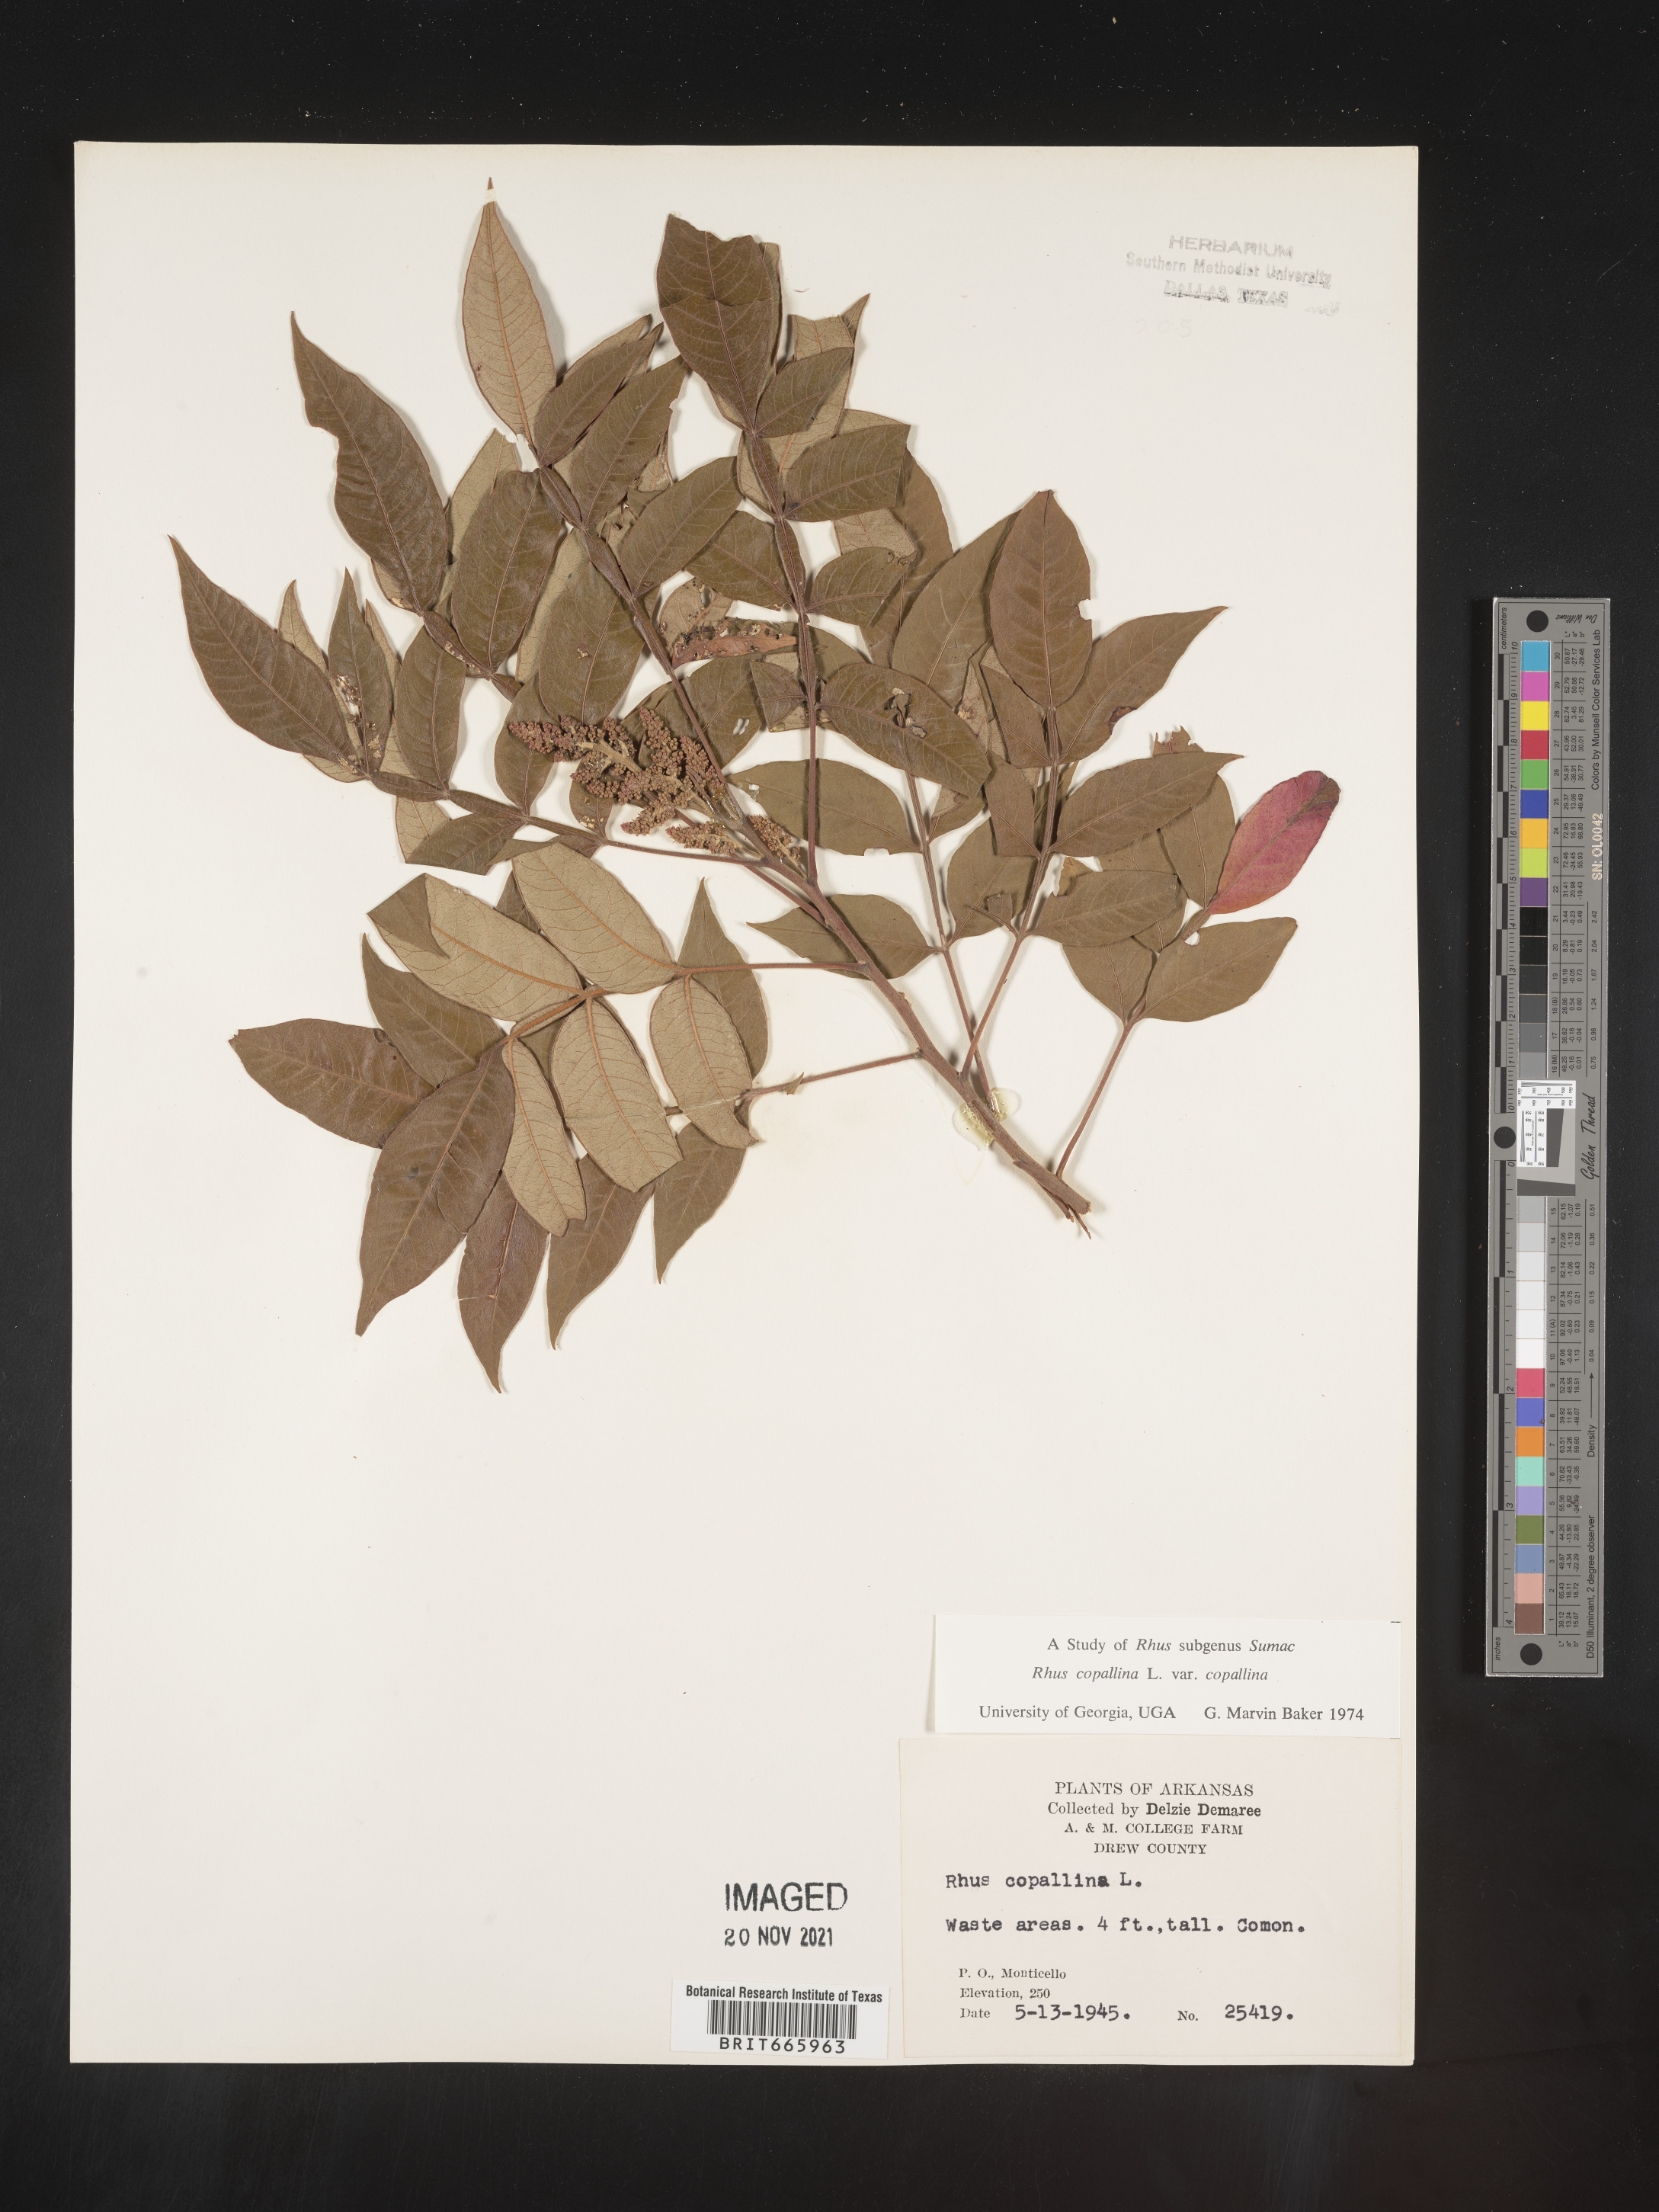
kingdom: Plantae
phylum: Tracheophyta
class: Magnoliopsida
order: Sapindales
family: Anacardiaceae
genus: Rhus
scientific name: Rhus copallina
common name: Shining sumac
